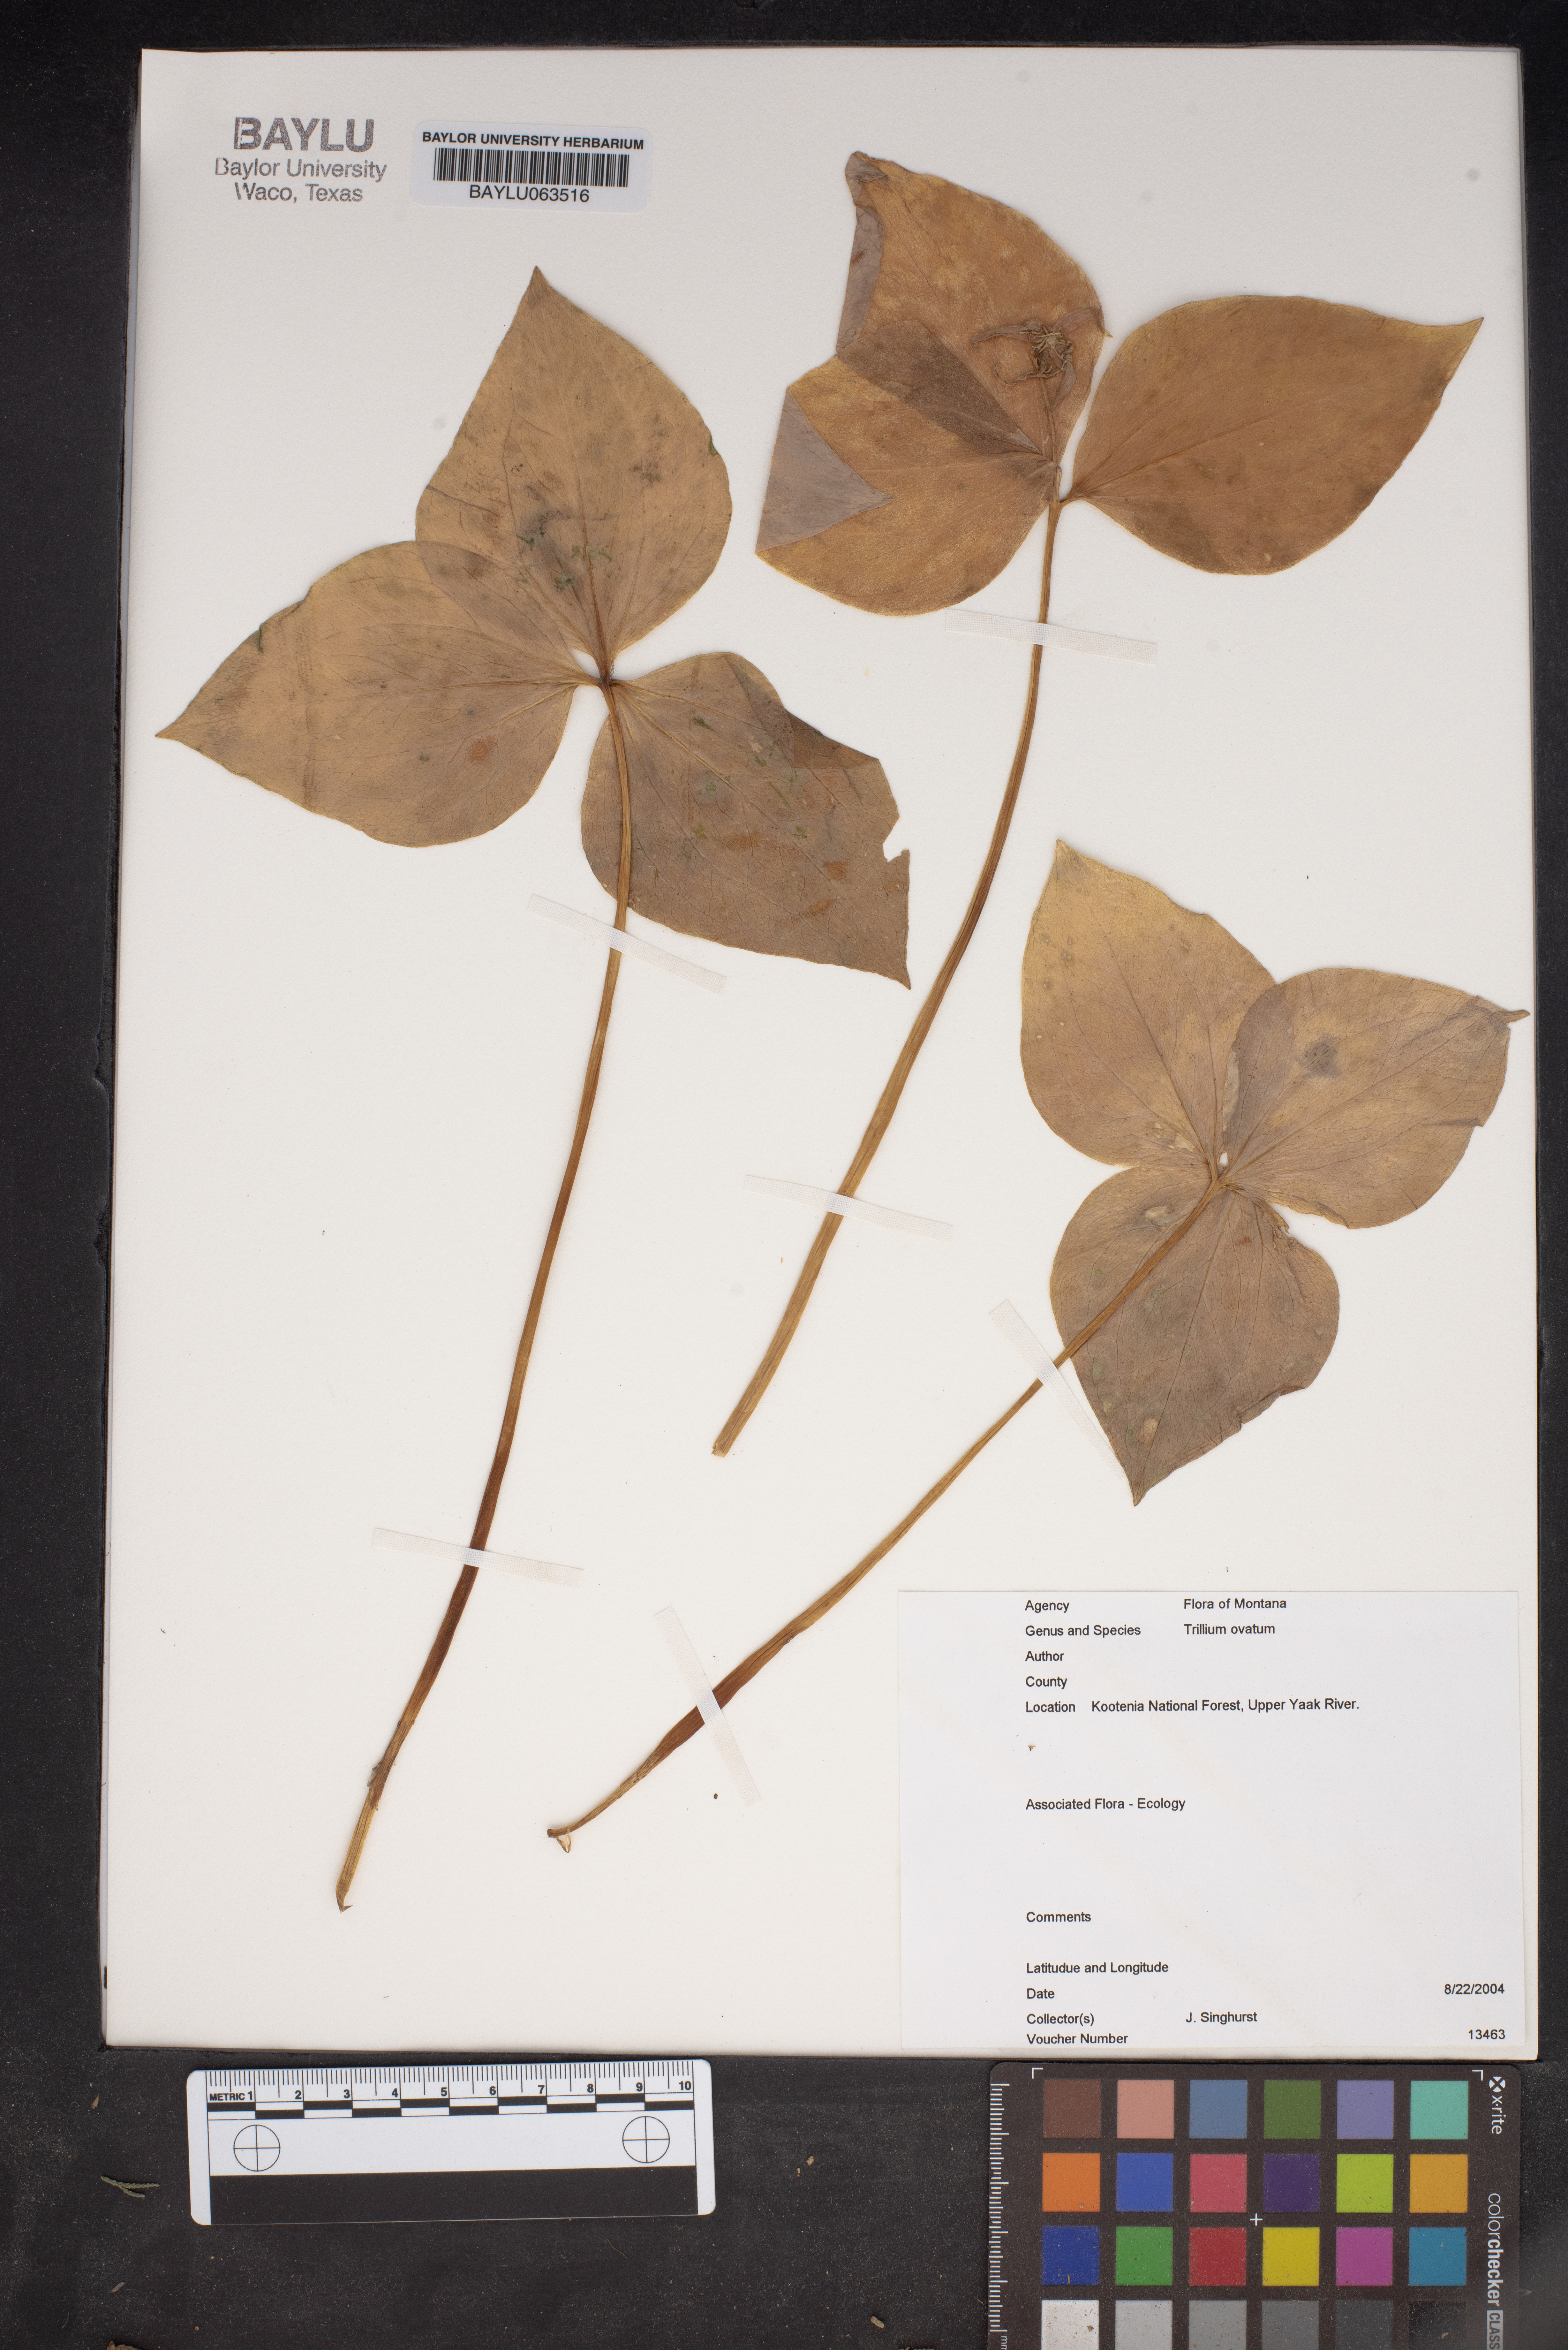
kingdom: Plantae
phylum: Tracheophyta
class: Liliopsida
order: Liliales
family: Melanthiaceae
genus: Trillium
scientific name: Trillium ovatum
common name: Pacific trillium
